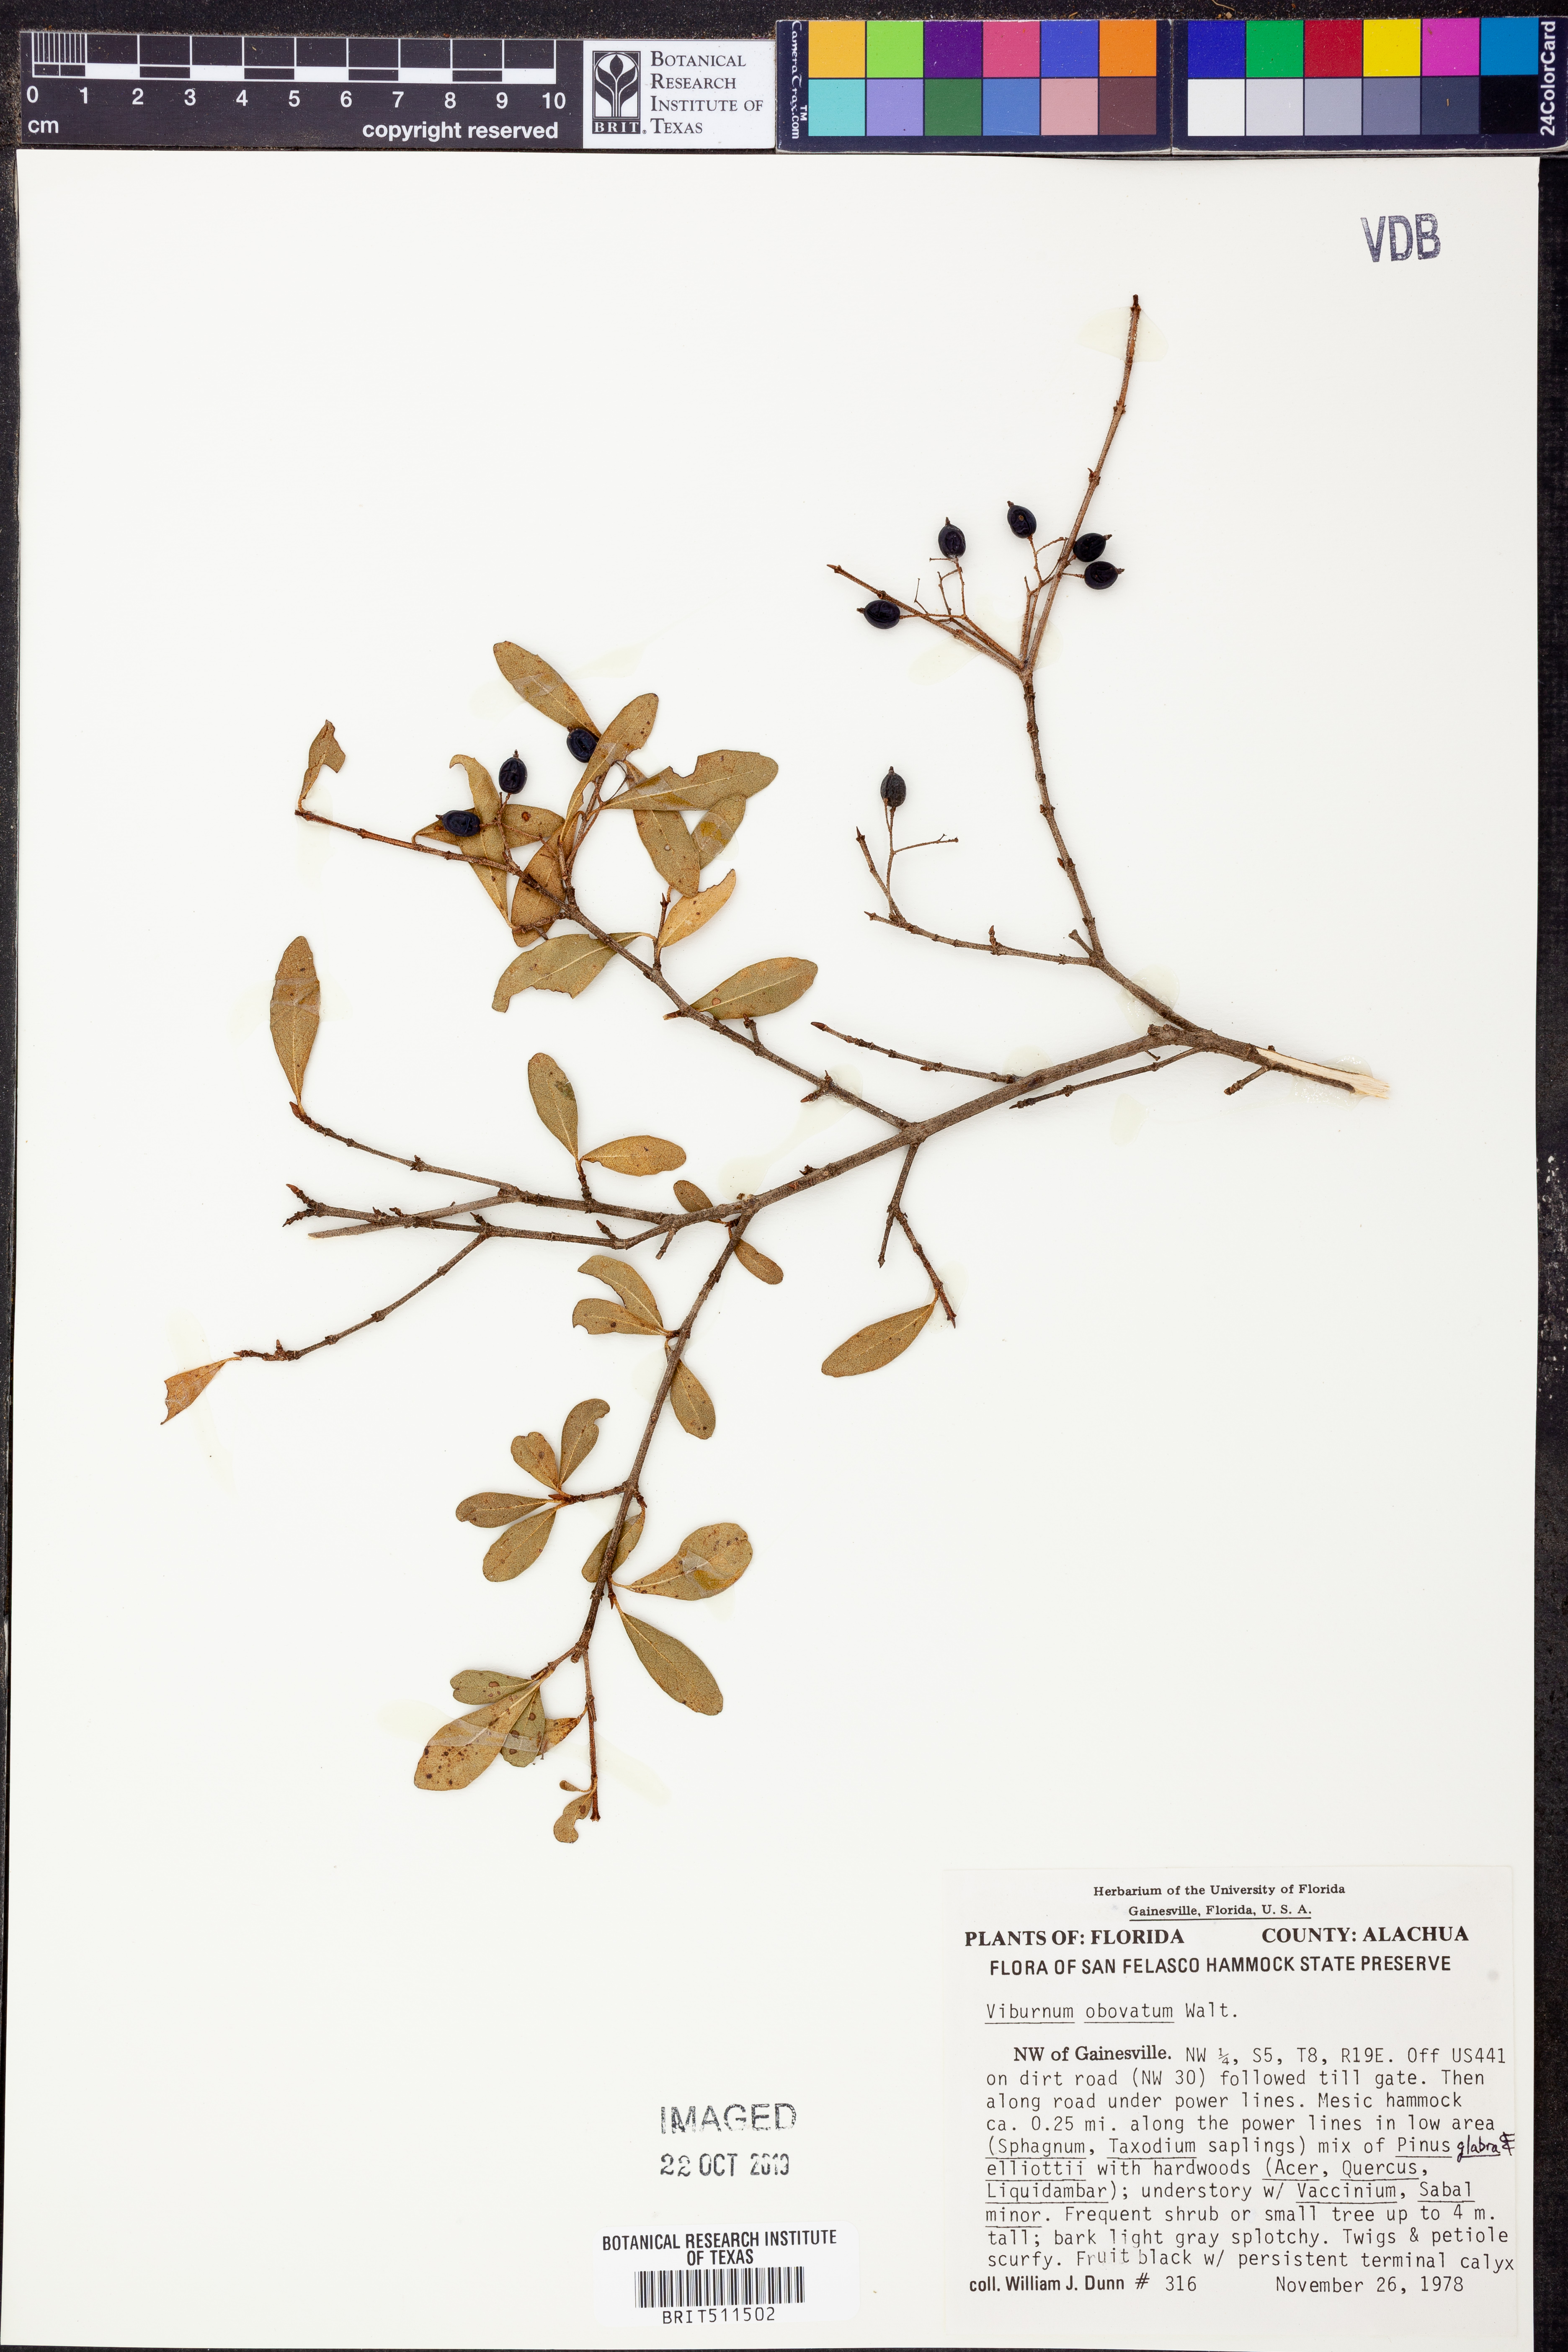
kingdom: Plantae
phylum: Tracheophyta
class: Magnoliopsida
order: Dipsacales
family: Viburnaceae
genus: Viburnum
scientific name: Viburnum obovatum
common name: Walter's viburnum
